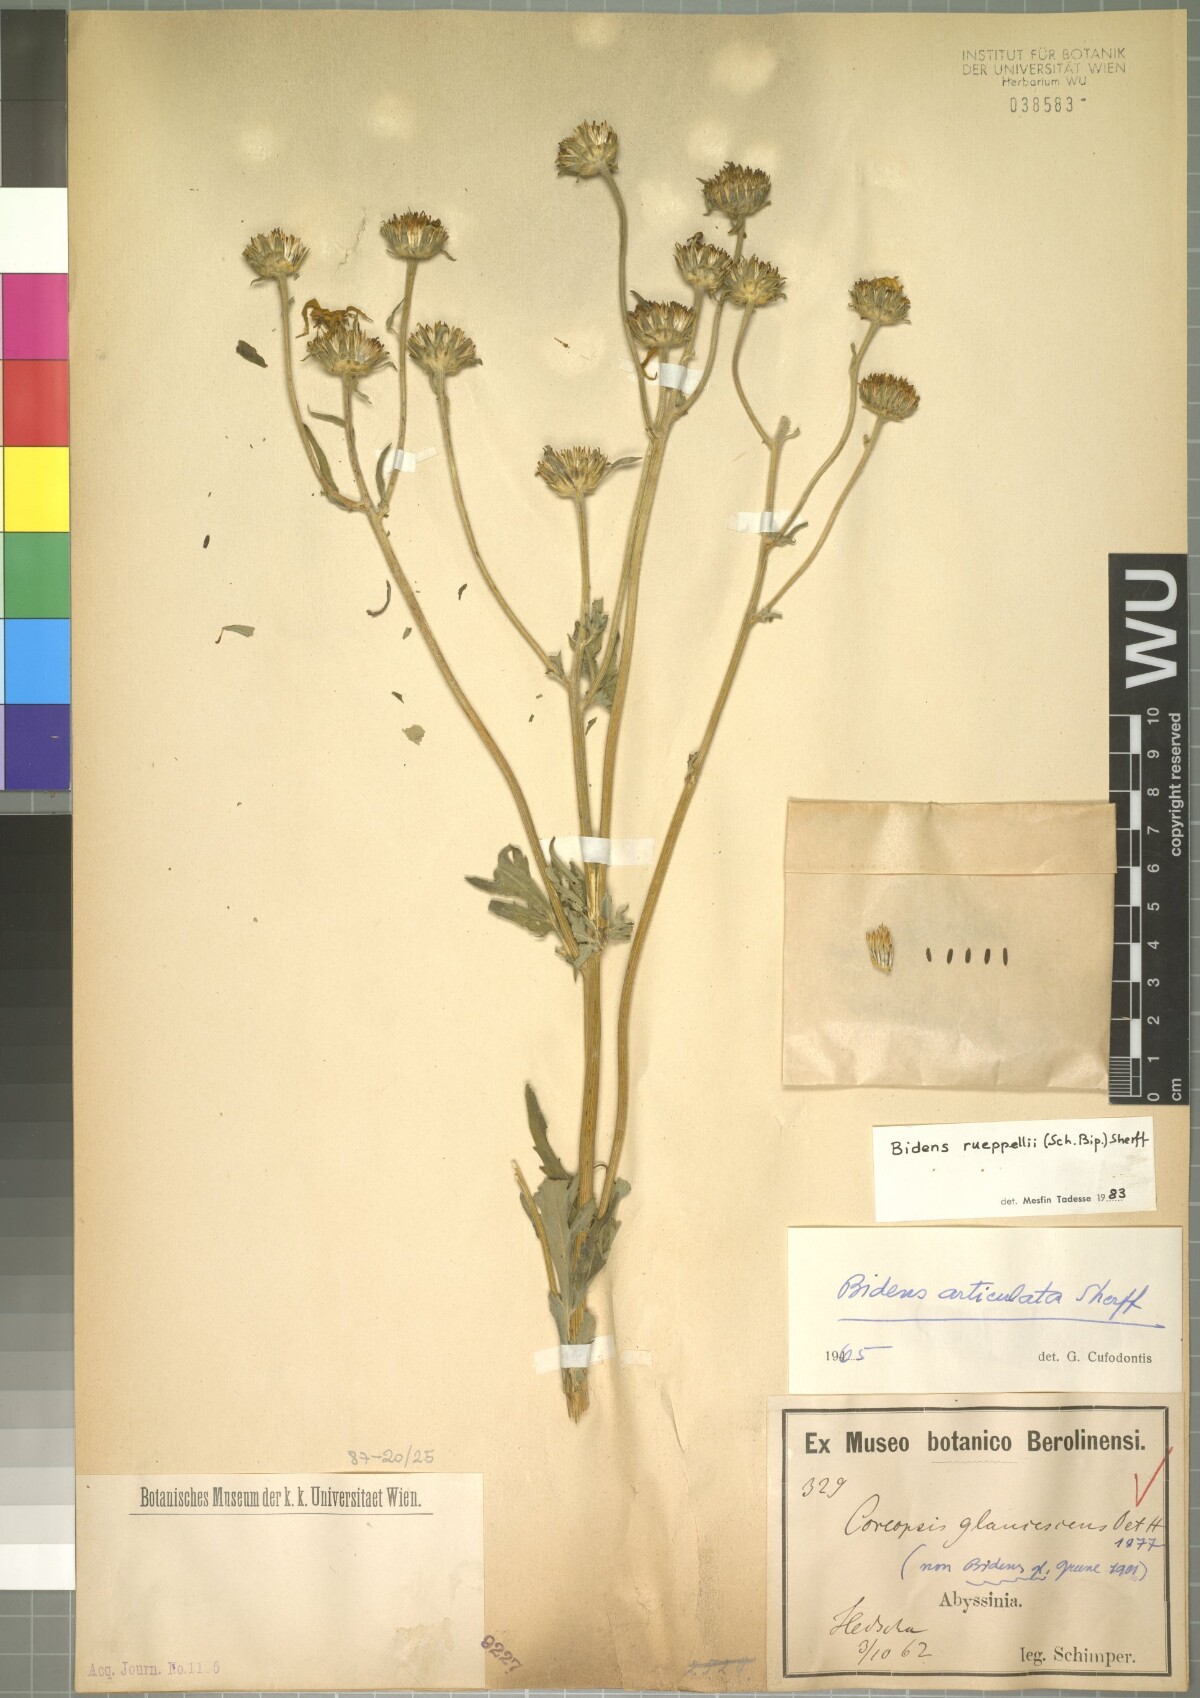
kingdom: Plantae
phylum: Tracheophyta
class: Magnoliopsida
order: Asterales
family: Asteraceae
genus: Bidens
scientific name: Bidens rueppellii
